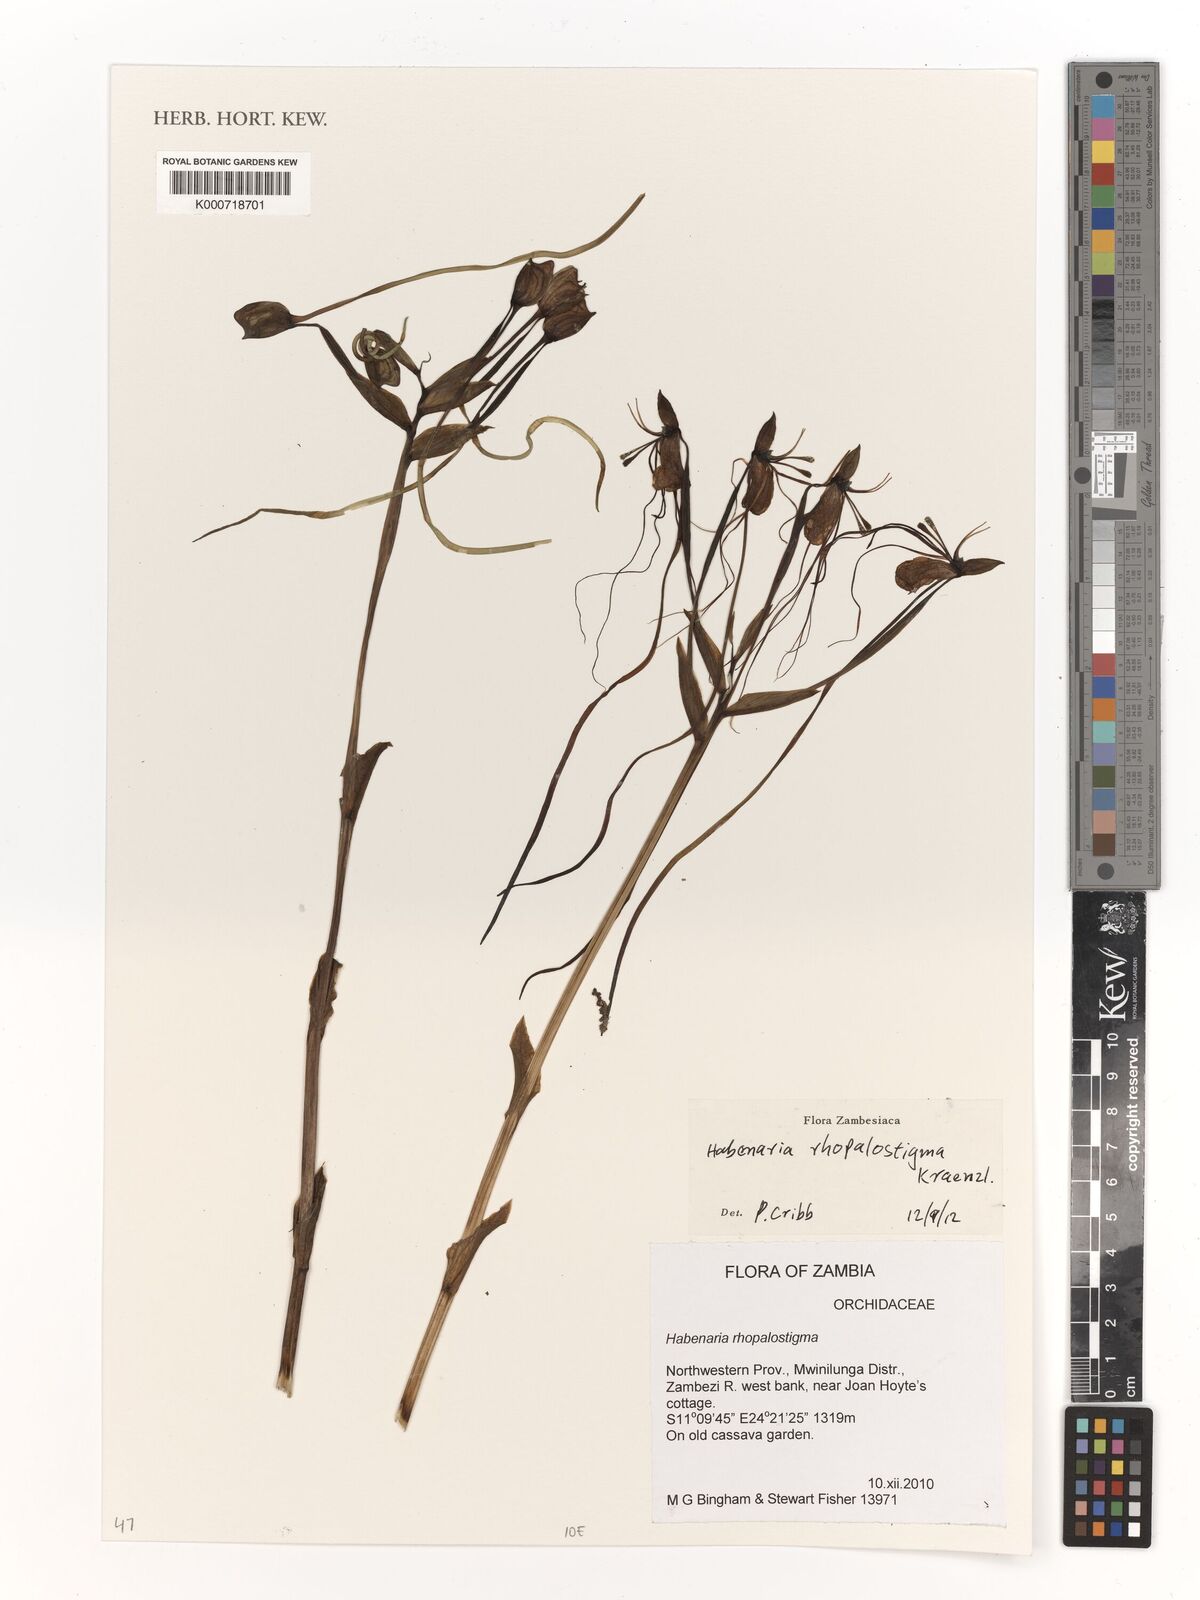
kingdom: Plantae
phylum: Tracheophyta
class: Liliopsida
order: Asparagales
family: Orchidaceae
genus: Habenaria
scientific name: Habenaria rhopalostigma
